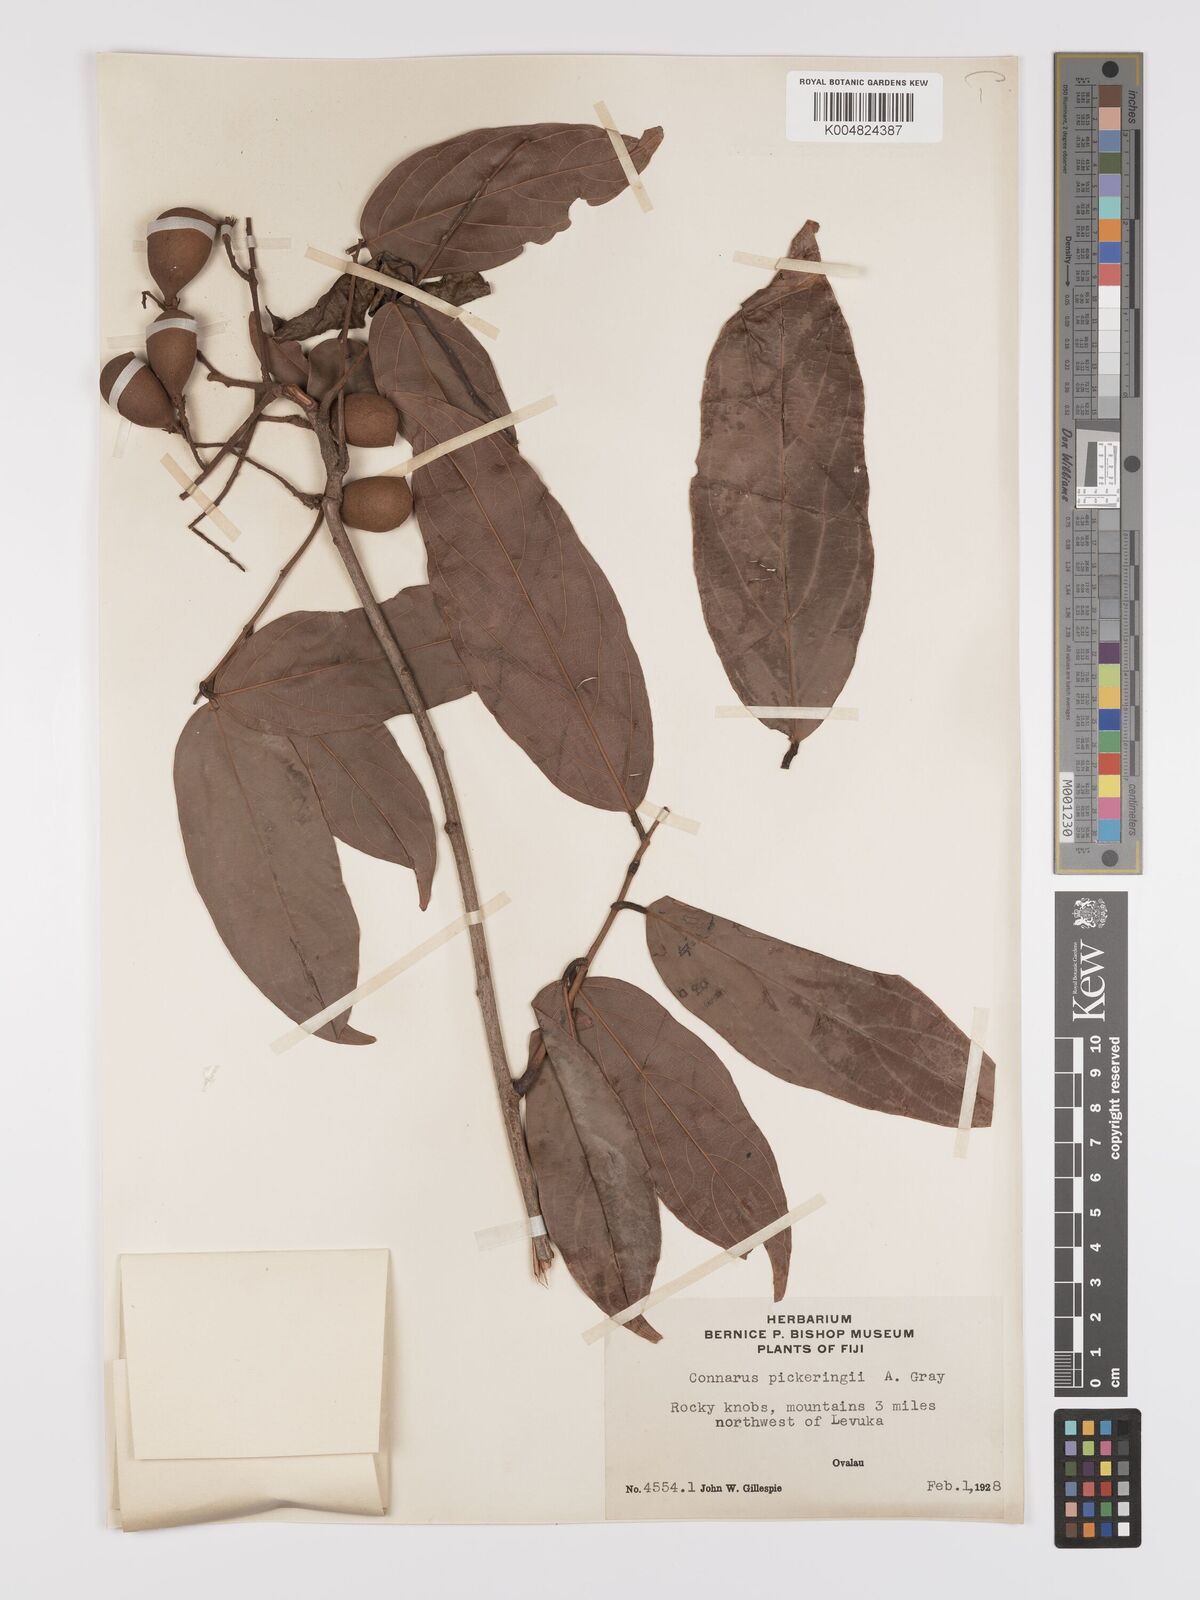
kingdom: Plantae
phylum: Tracheophyta
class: Magnoliopsida
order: Oxalidales
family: Connaraceae
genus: Connarus
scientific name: Connarus pickeringii
